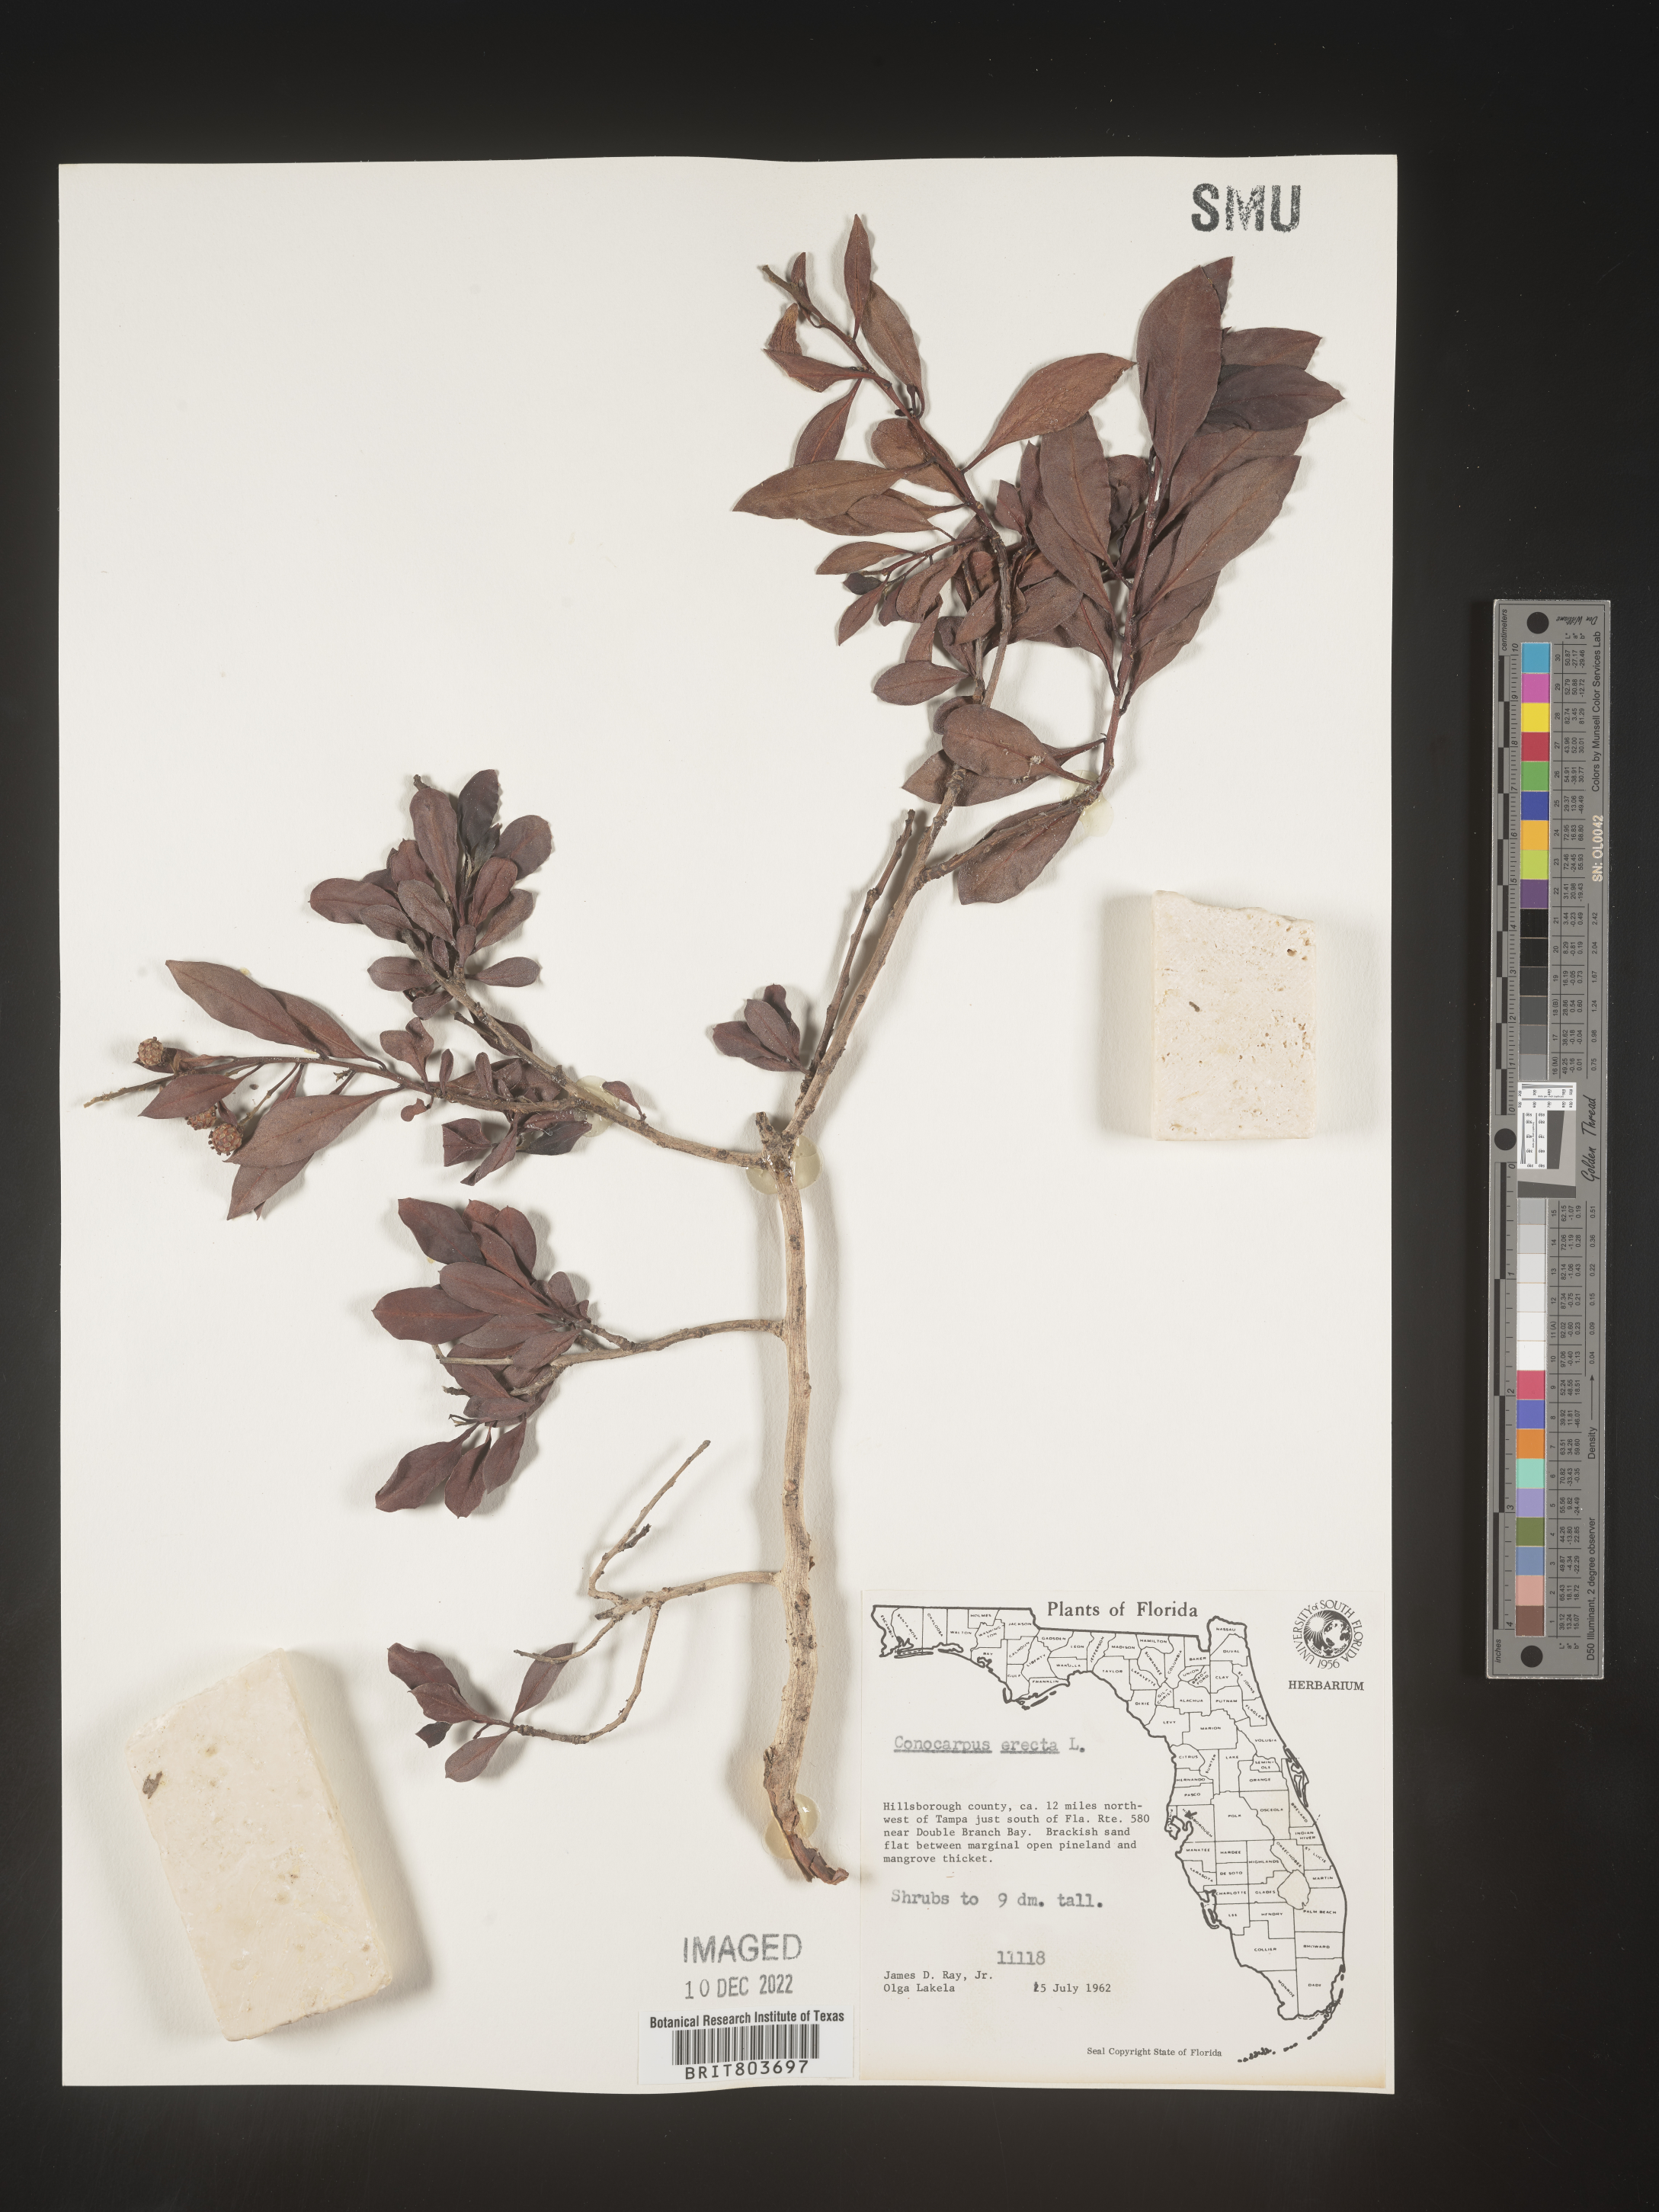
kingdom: Plantae
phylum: Tracheophyta
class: Magnoliopsida
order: Myrtales
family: Combretaceae
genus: Conocarpus
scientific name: Conocarpus erectus
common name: Button mangrove
